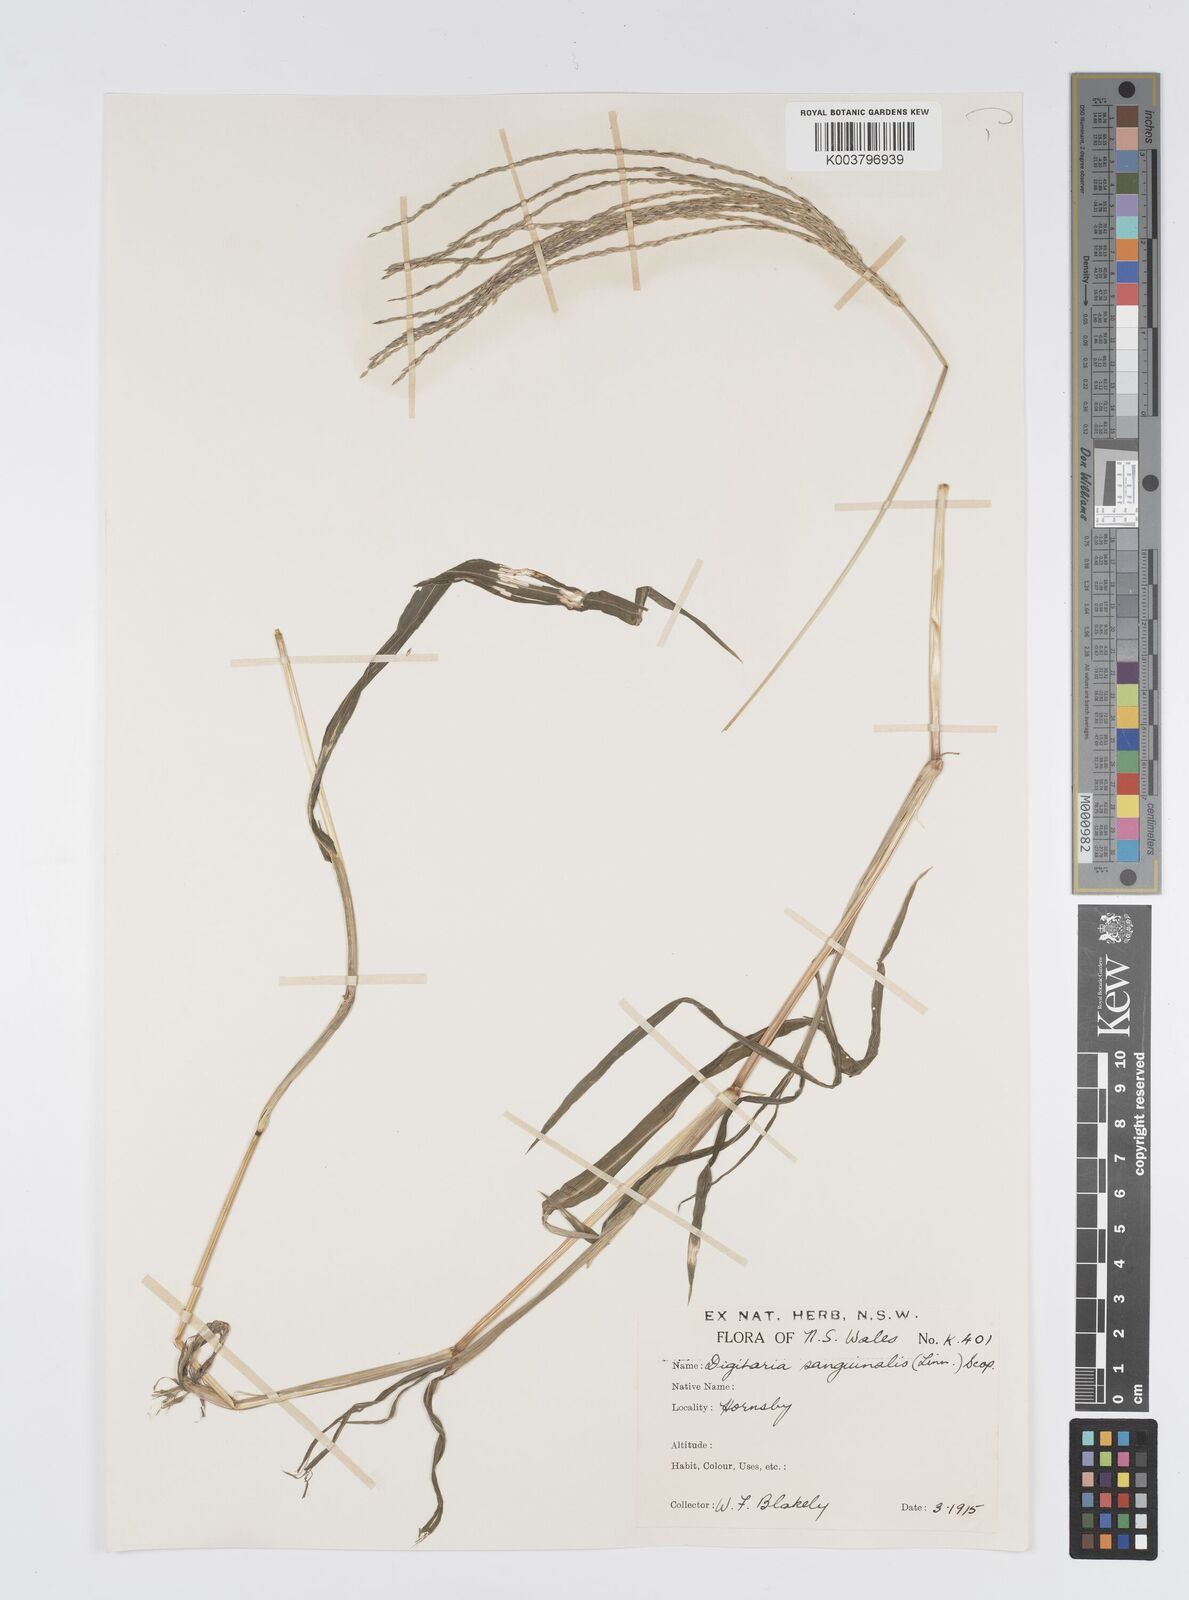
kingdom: Plantae
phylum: Tracheophyta
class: Liliopsida
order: Poales
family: Poaceae
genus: Digitaria
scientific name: Digitaria sanguinalis
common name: Hairy crabgrass
